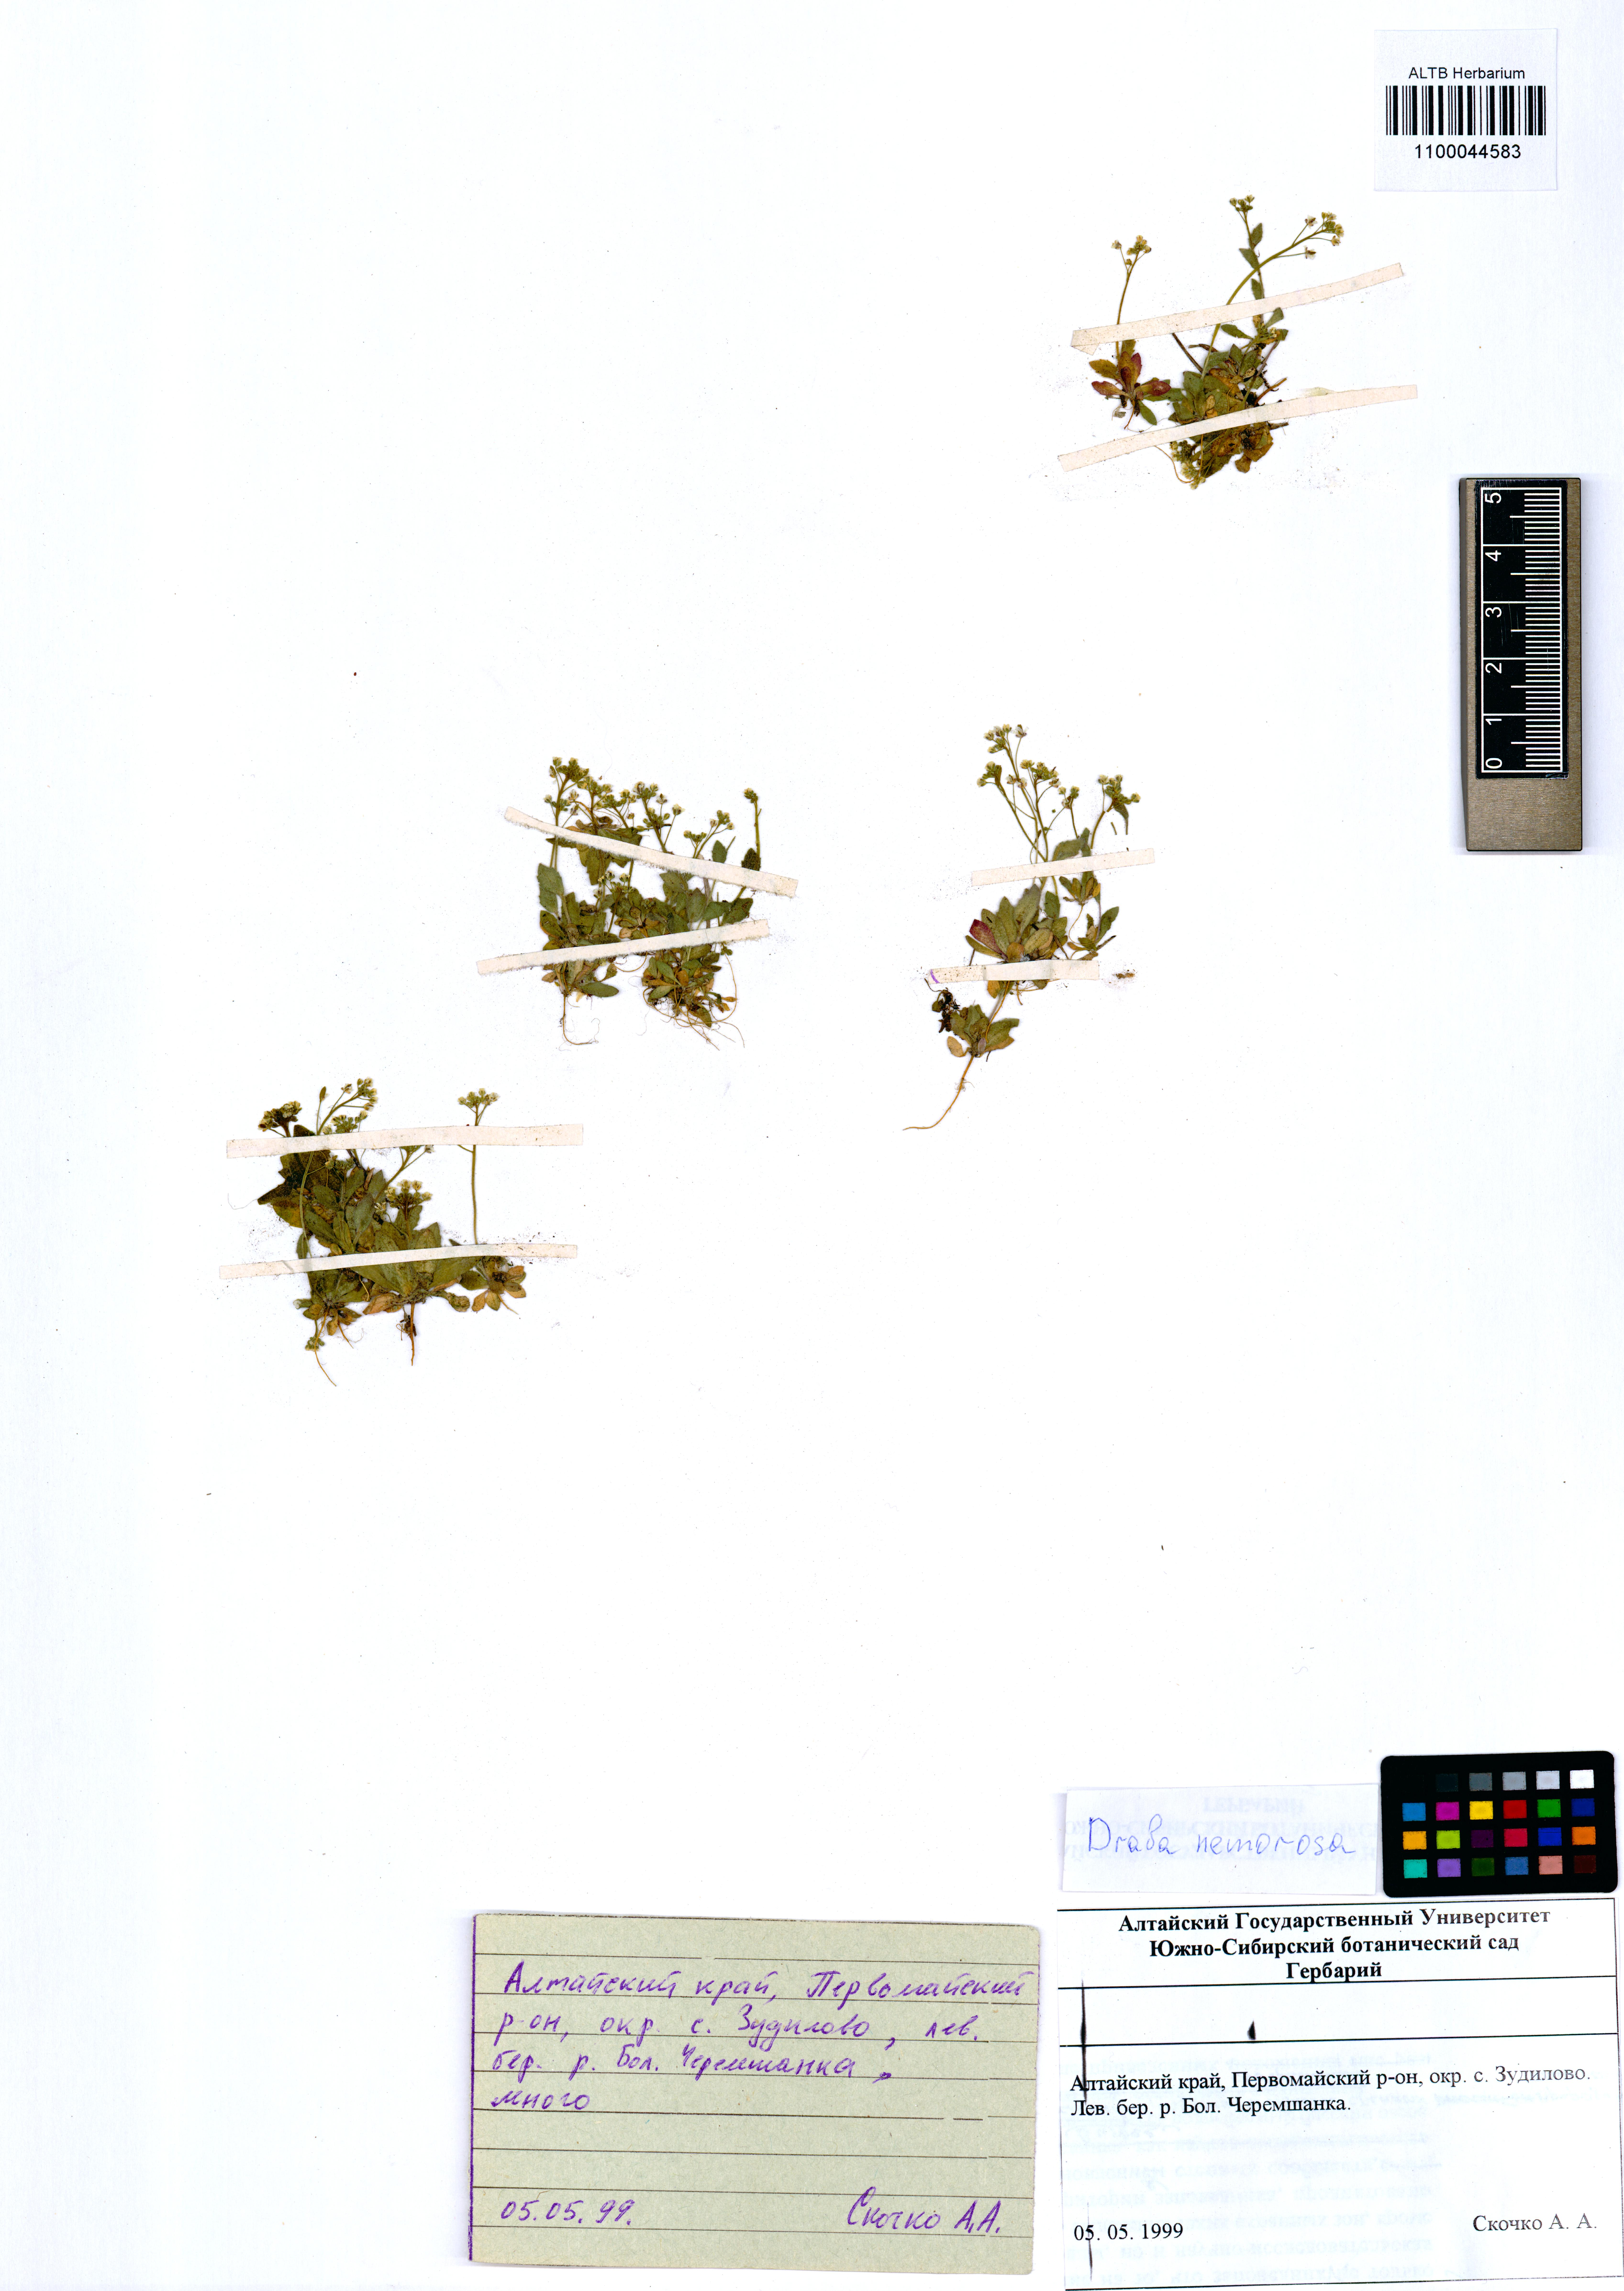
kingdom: Plantae
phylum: Tracheophyta
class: Magnoliopsida
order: Brassicales
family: Brassicaceae
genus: Draba
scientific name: Draba nemorosa
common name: Wood whitlow-grass
